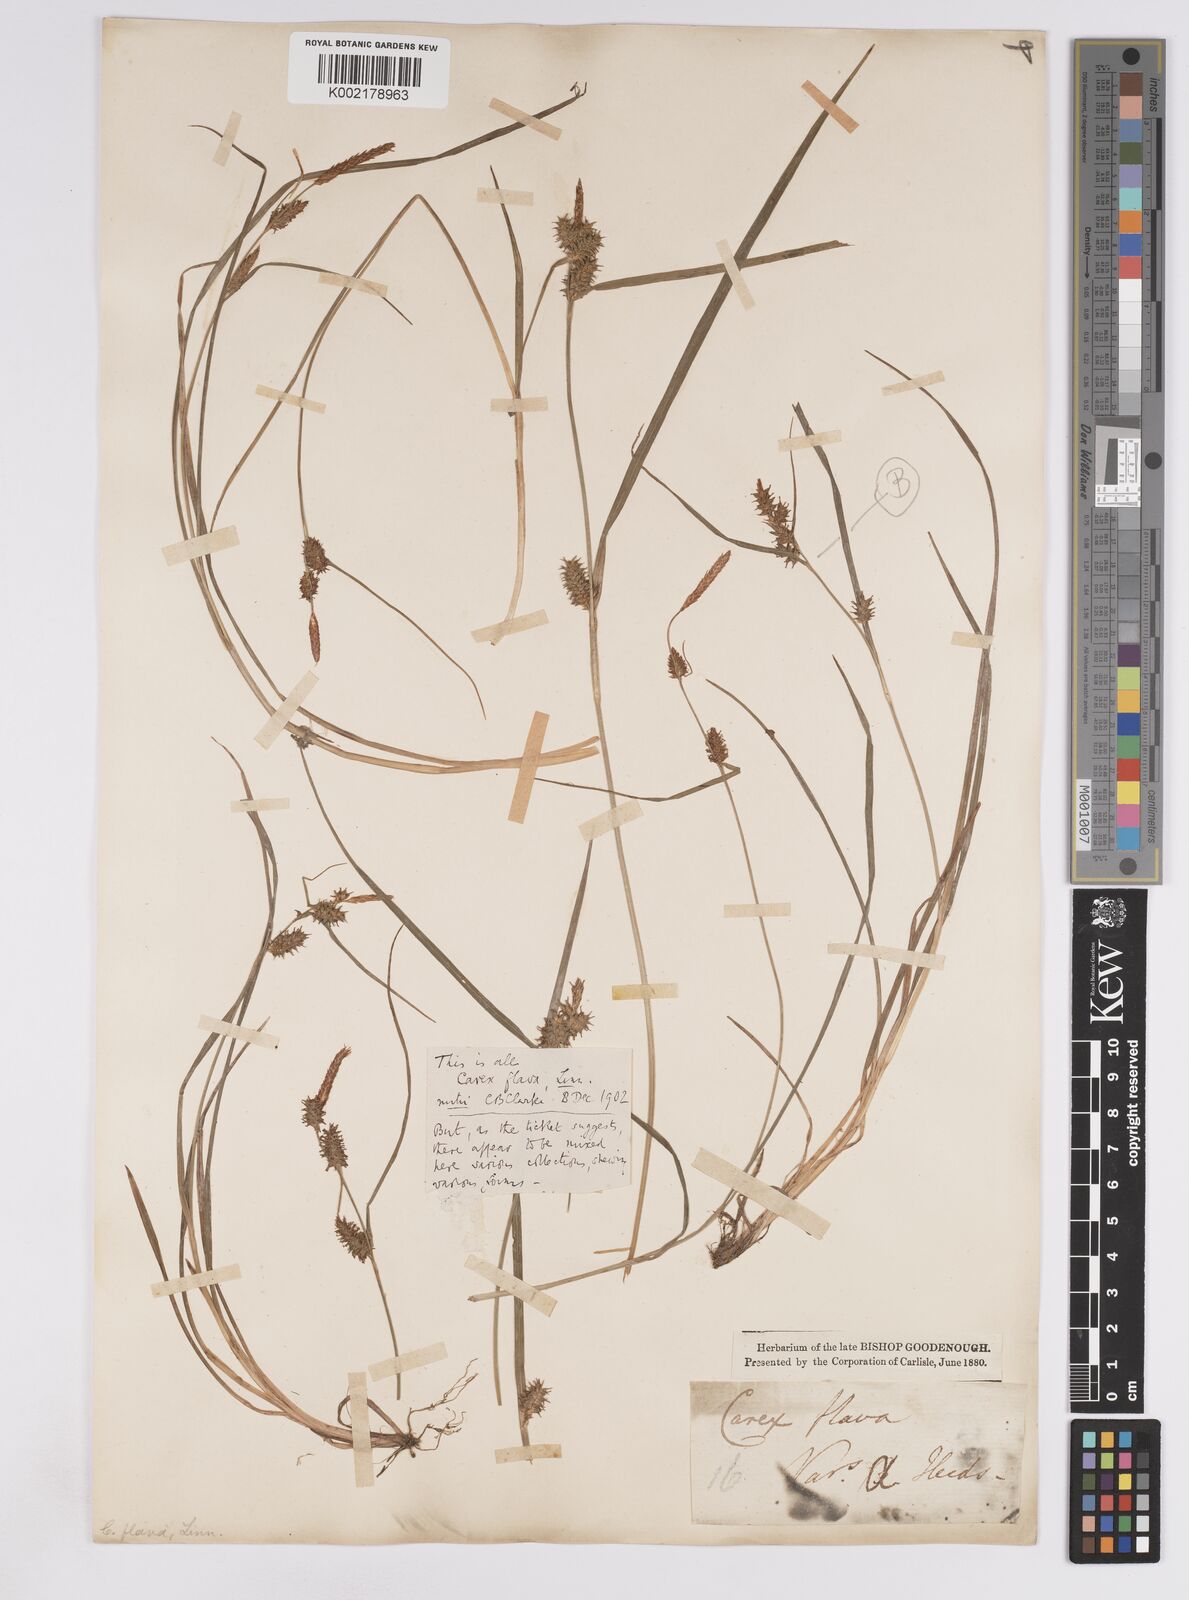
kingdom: Plantae
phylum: Tracheophyta
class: Liliopsida
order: Poales
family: Cyperaceae
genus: Carex
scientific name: Carex lepidocarpa
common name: Long-stalked yellow-sedge
